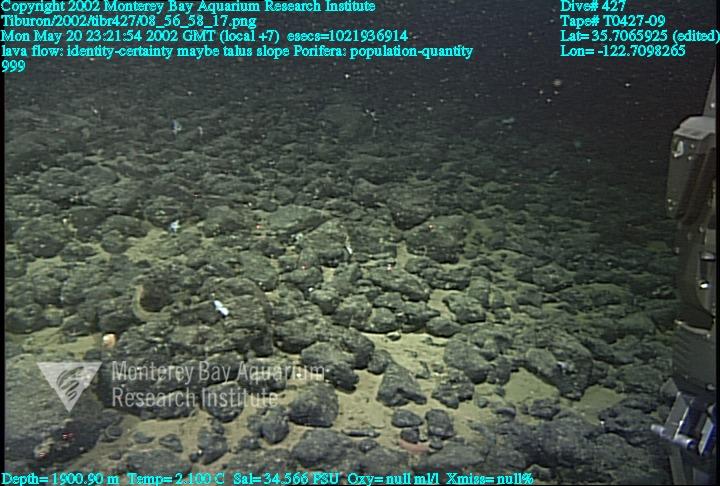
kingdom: Animalia
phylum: Porifera
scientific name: Porifera
